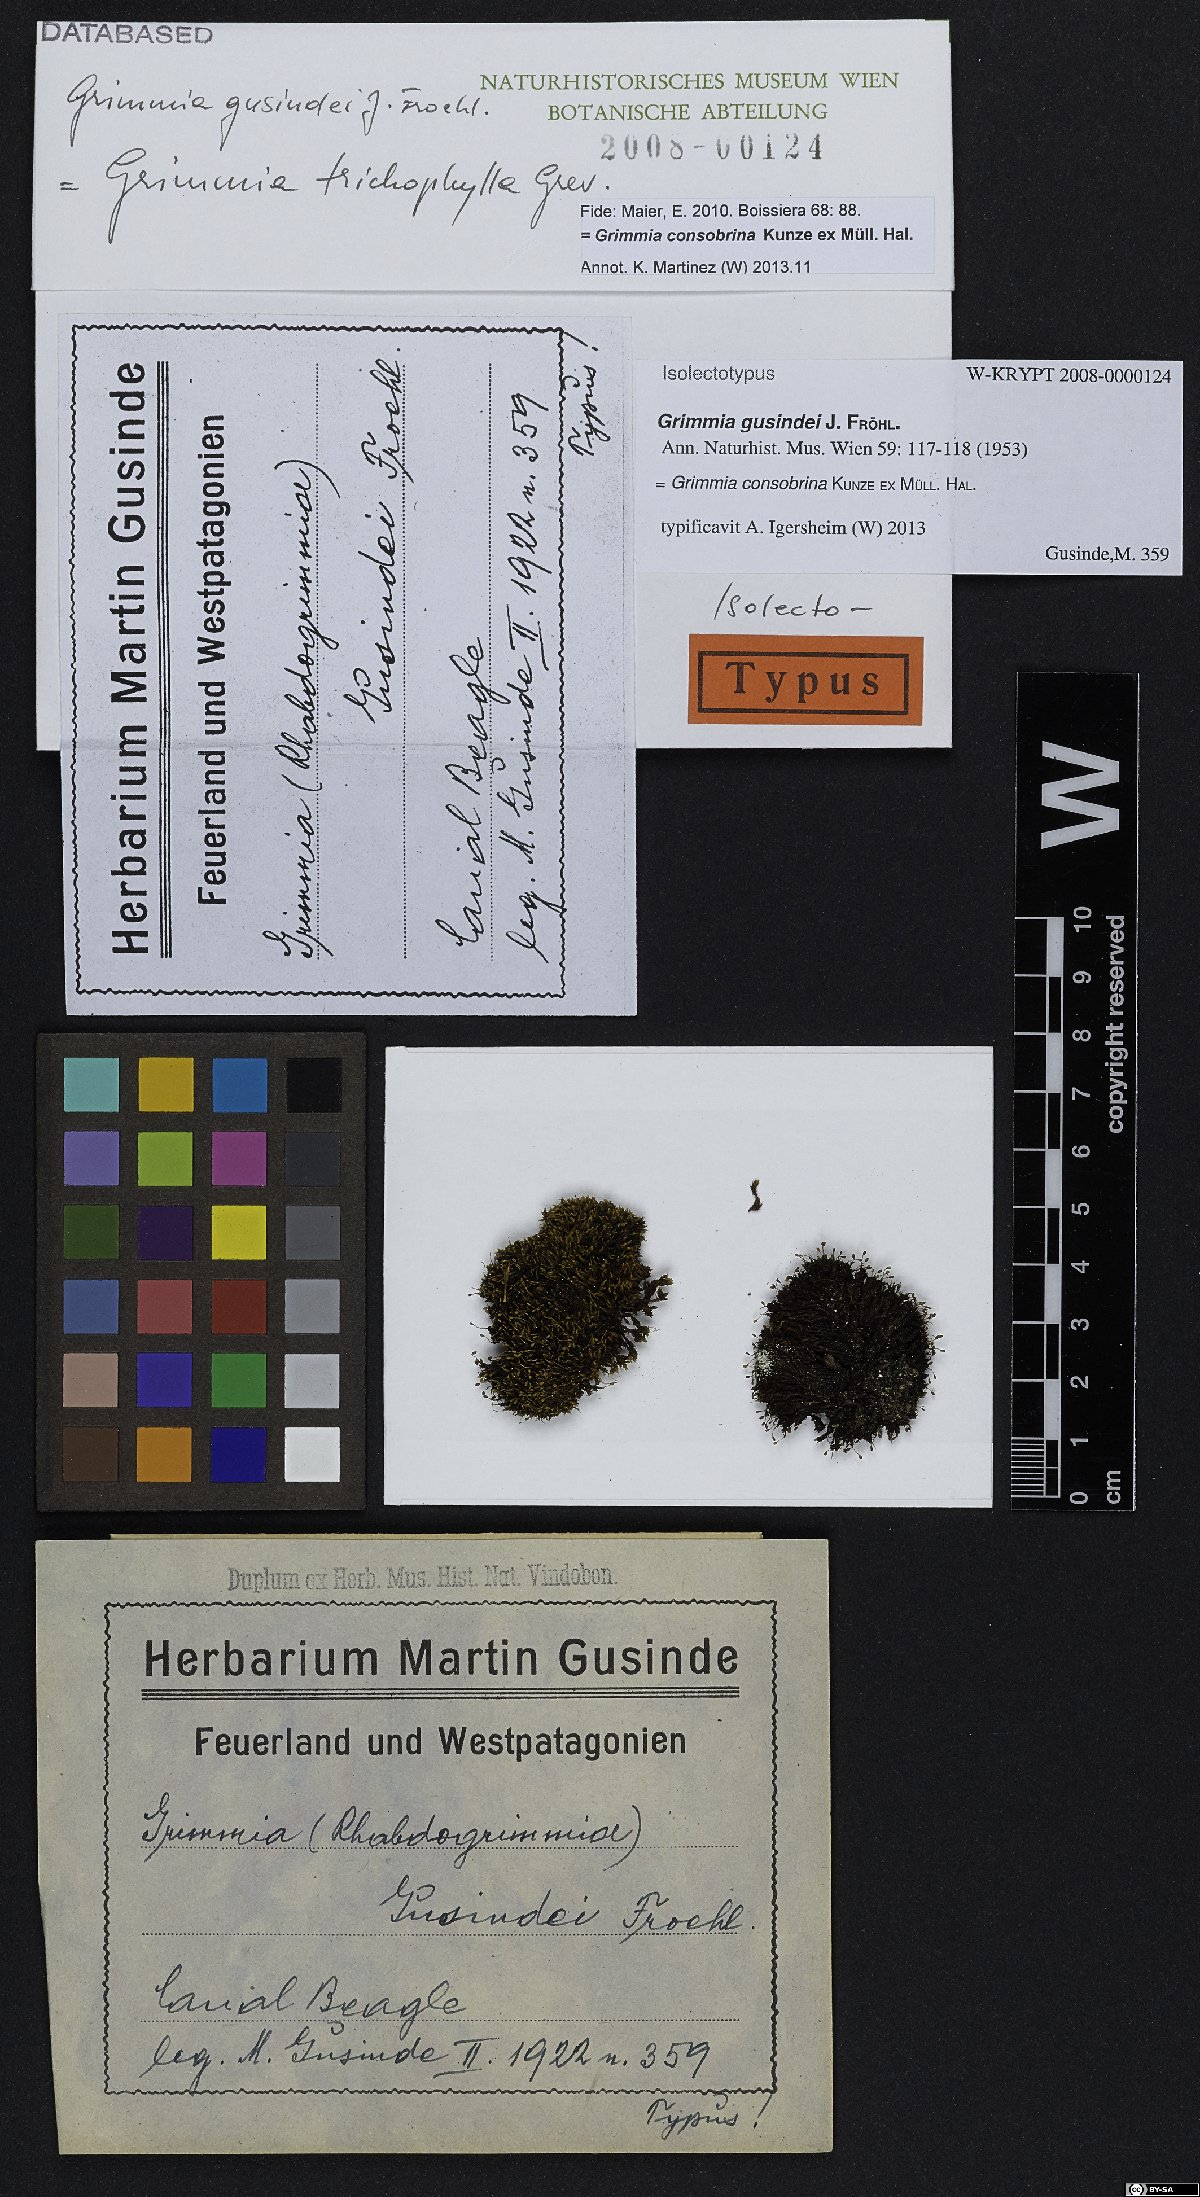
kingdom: Plantae
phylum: Bryophyta
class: Bryopsida
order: Grimmiales
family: Grimmiaceae
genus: Grimmia
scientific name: Grimmia consobrina
